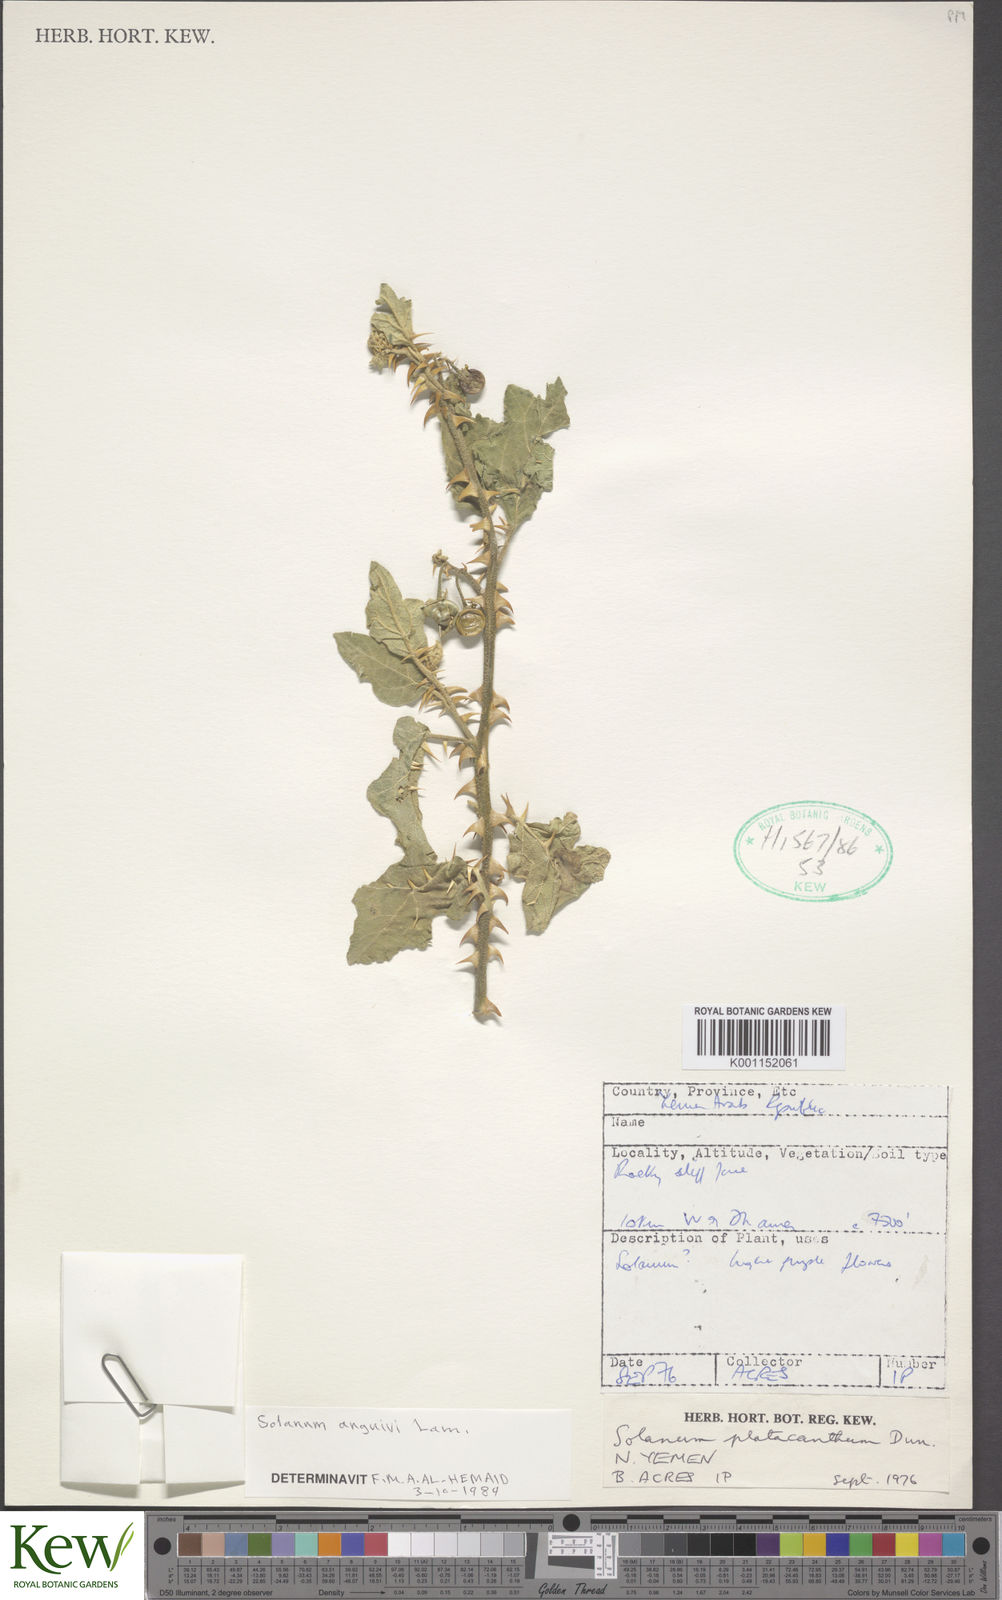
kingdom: Plantae
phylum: Tracheophyta
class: Magnoliopsida
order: Solanales
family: Solanaceae
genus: Solanum
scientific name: Solanum anguivi
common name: Forest bitterberry
